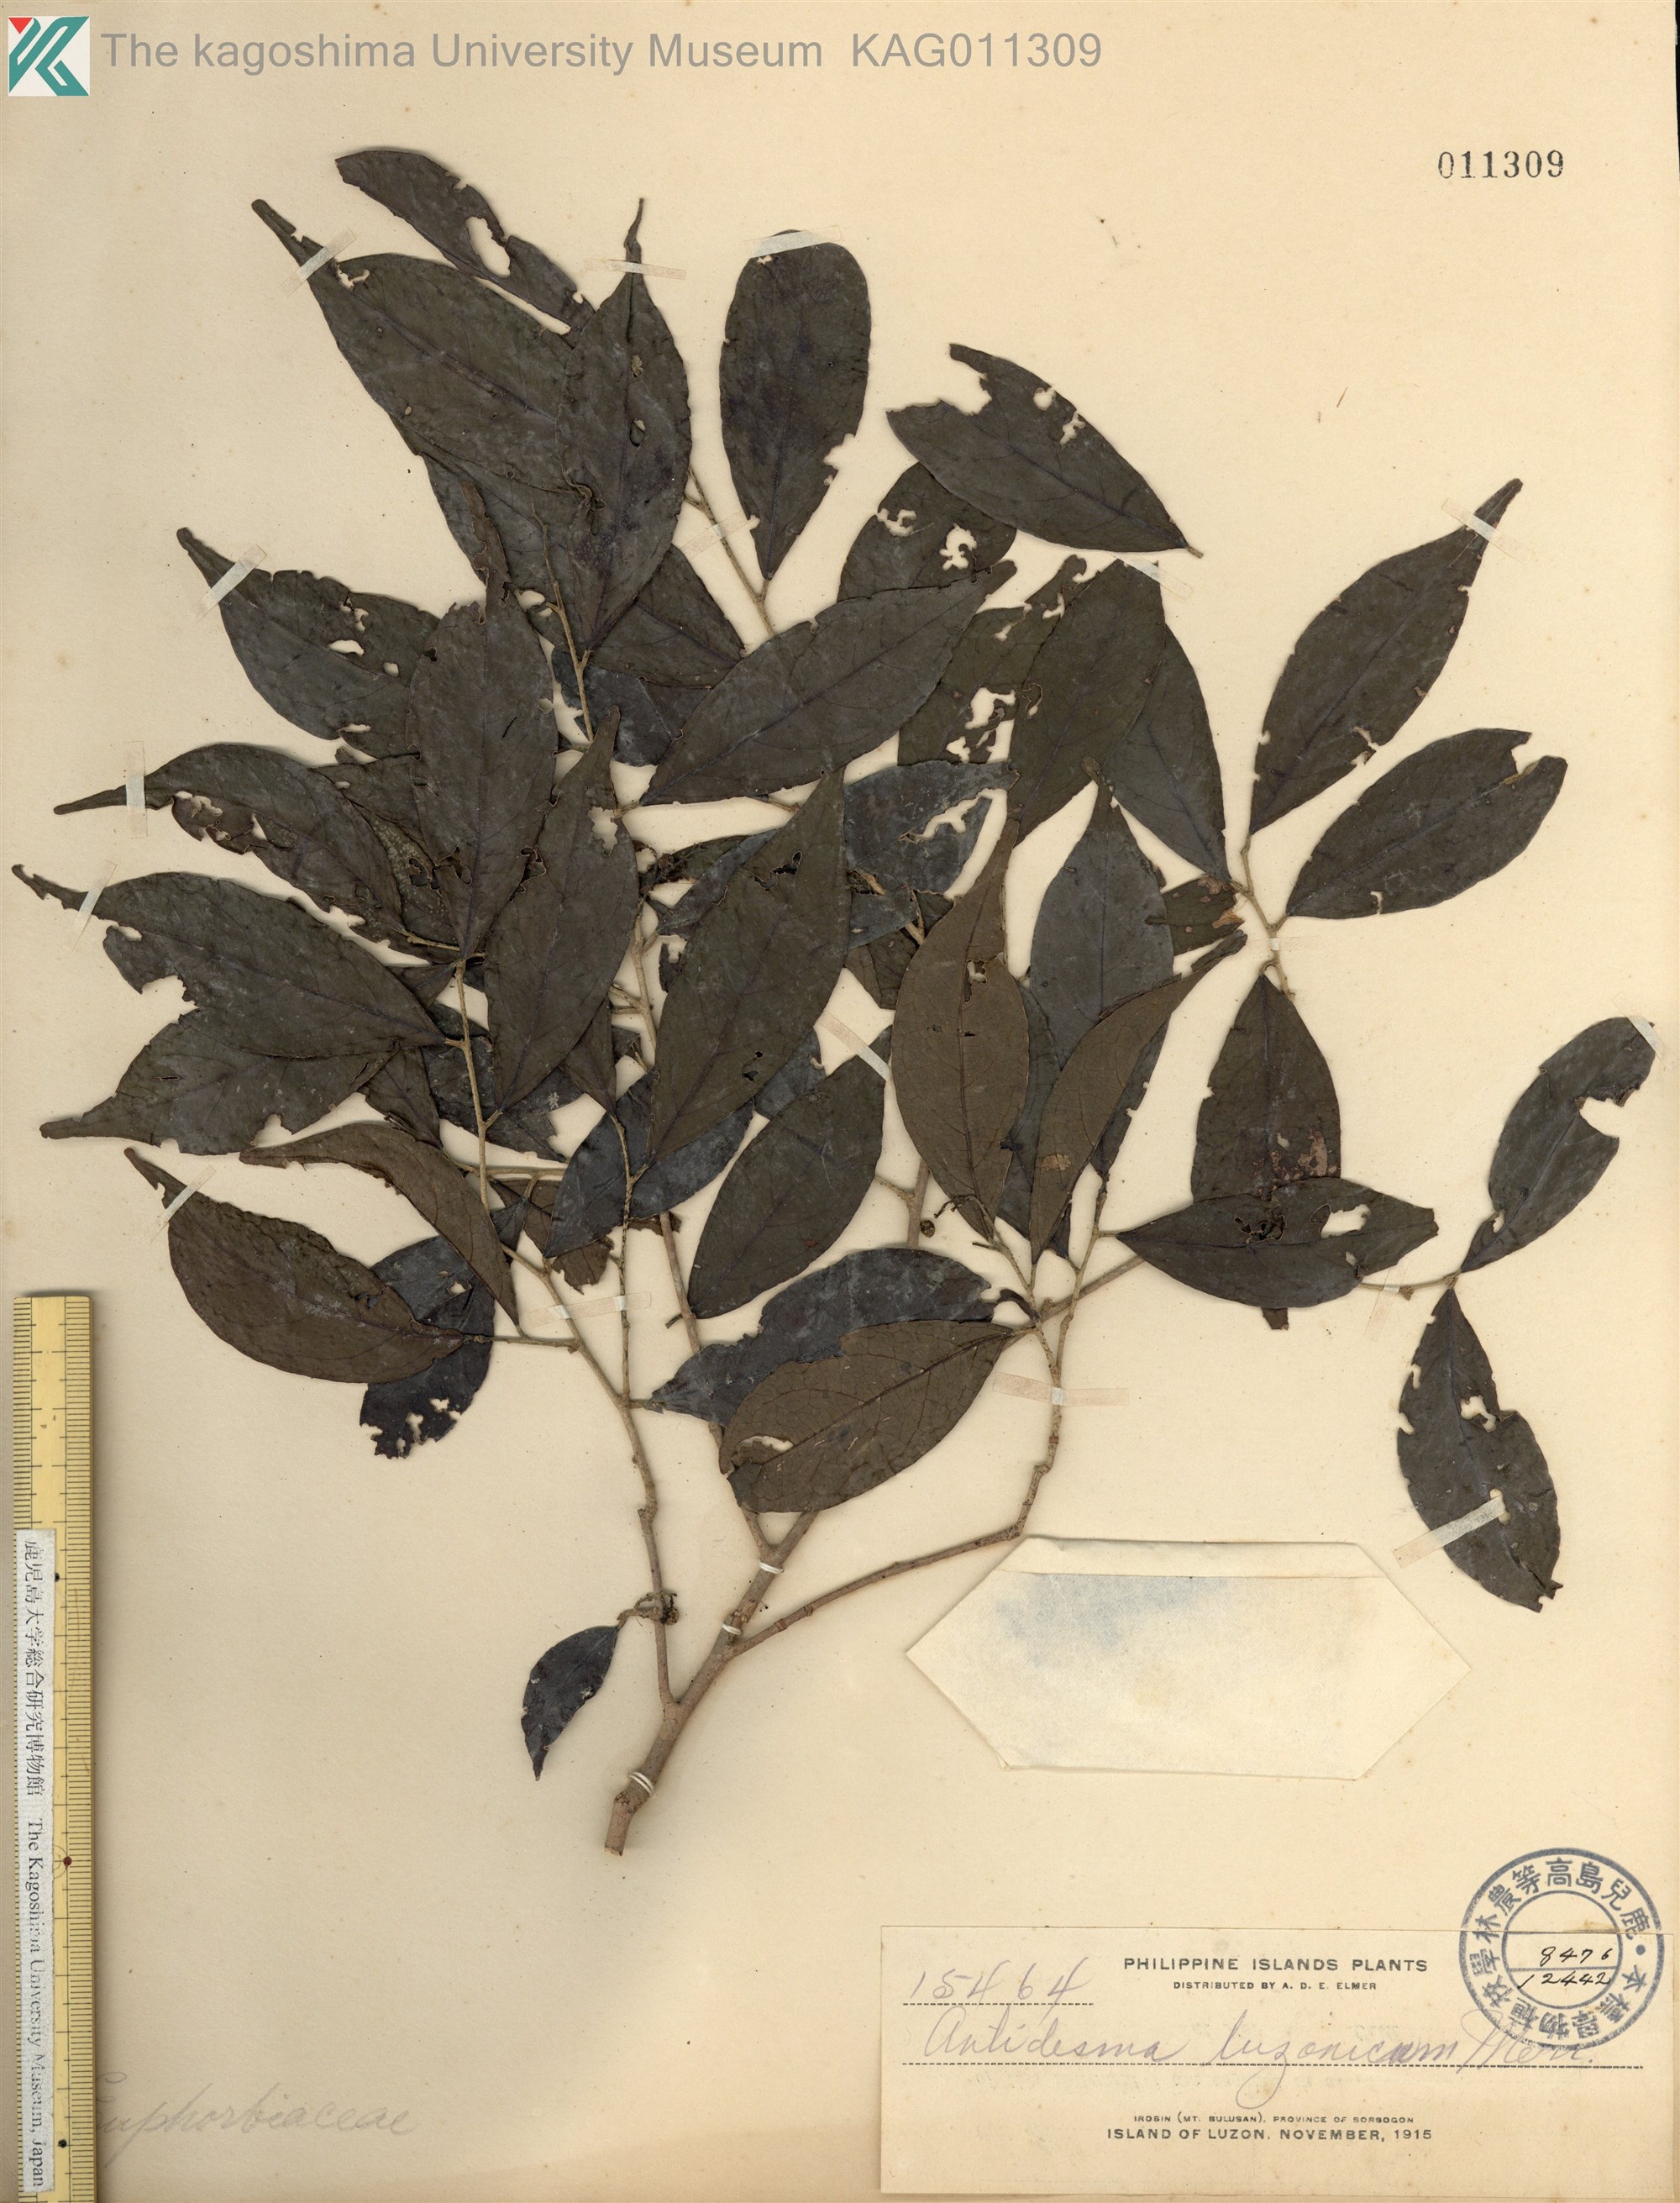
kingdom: Plantae
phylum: Tracheophyta
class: Magnoliopsida
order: Malpighiales
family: Phyllanthaceae
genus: Antidesma
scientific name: Antidesma digitaliforme
